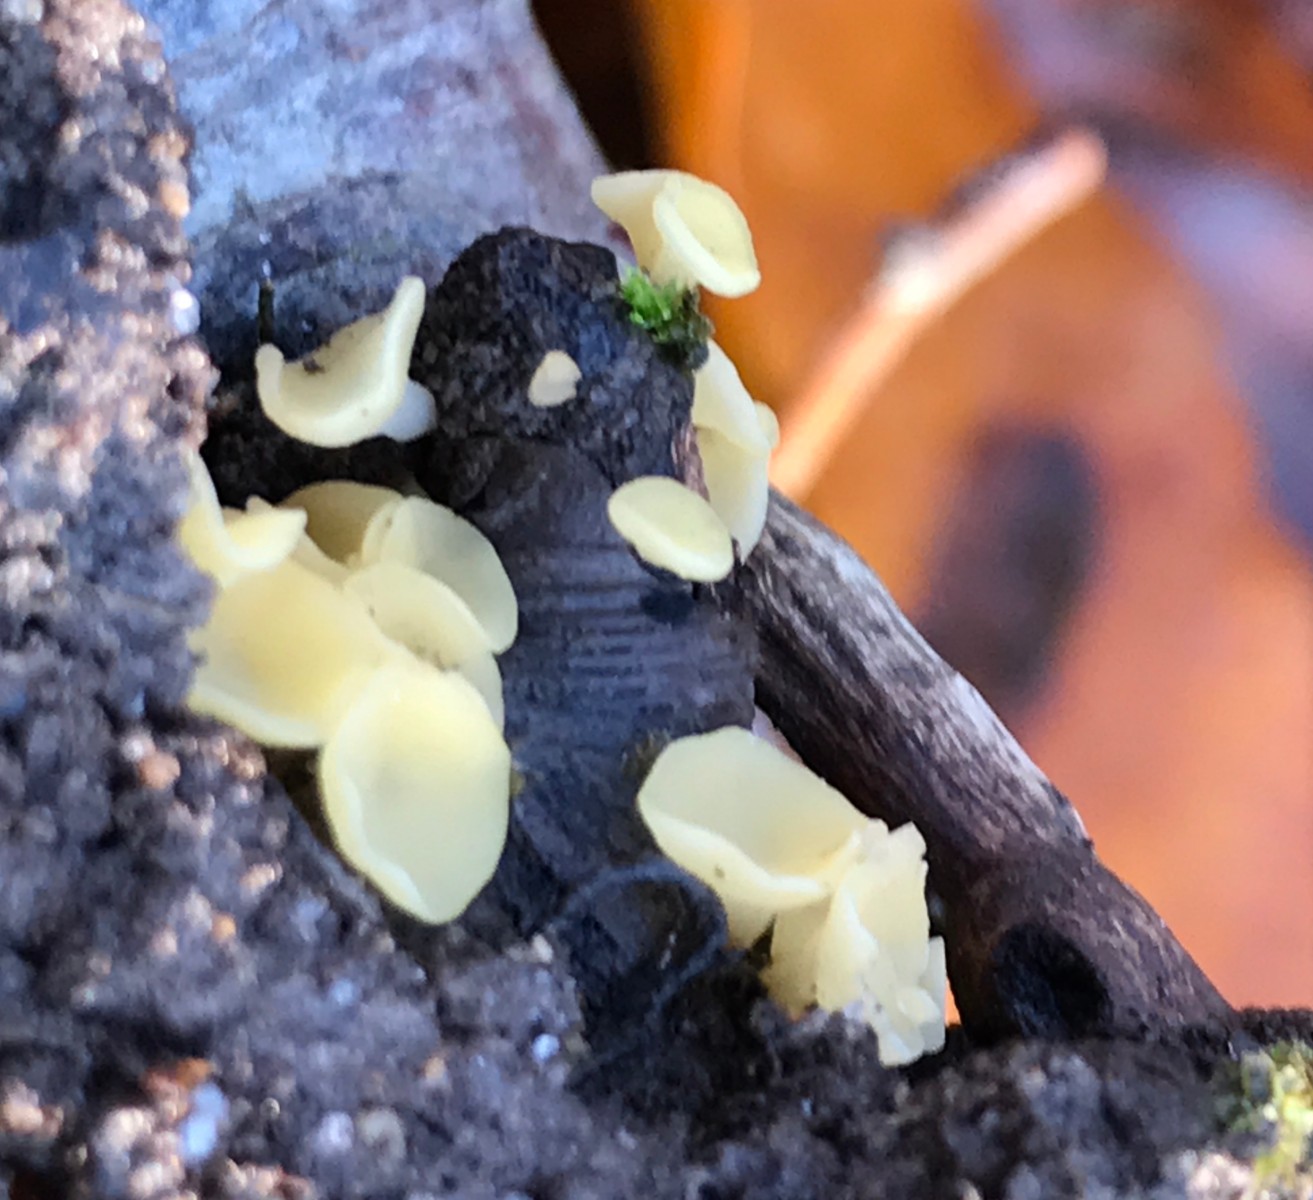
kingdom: Fungi
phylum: Ascomycota
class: Leotiomycetes
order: Helotiales
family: Helotiaceae
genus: Hymenoscyphus
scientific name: Hymenoscyphus
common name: stilkskive
